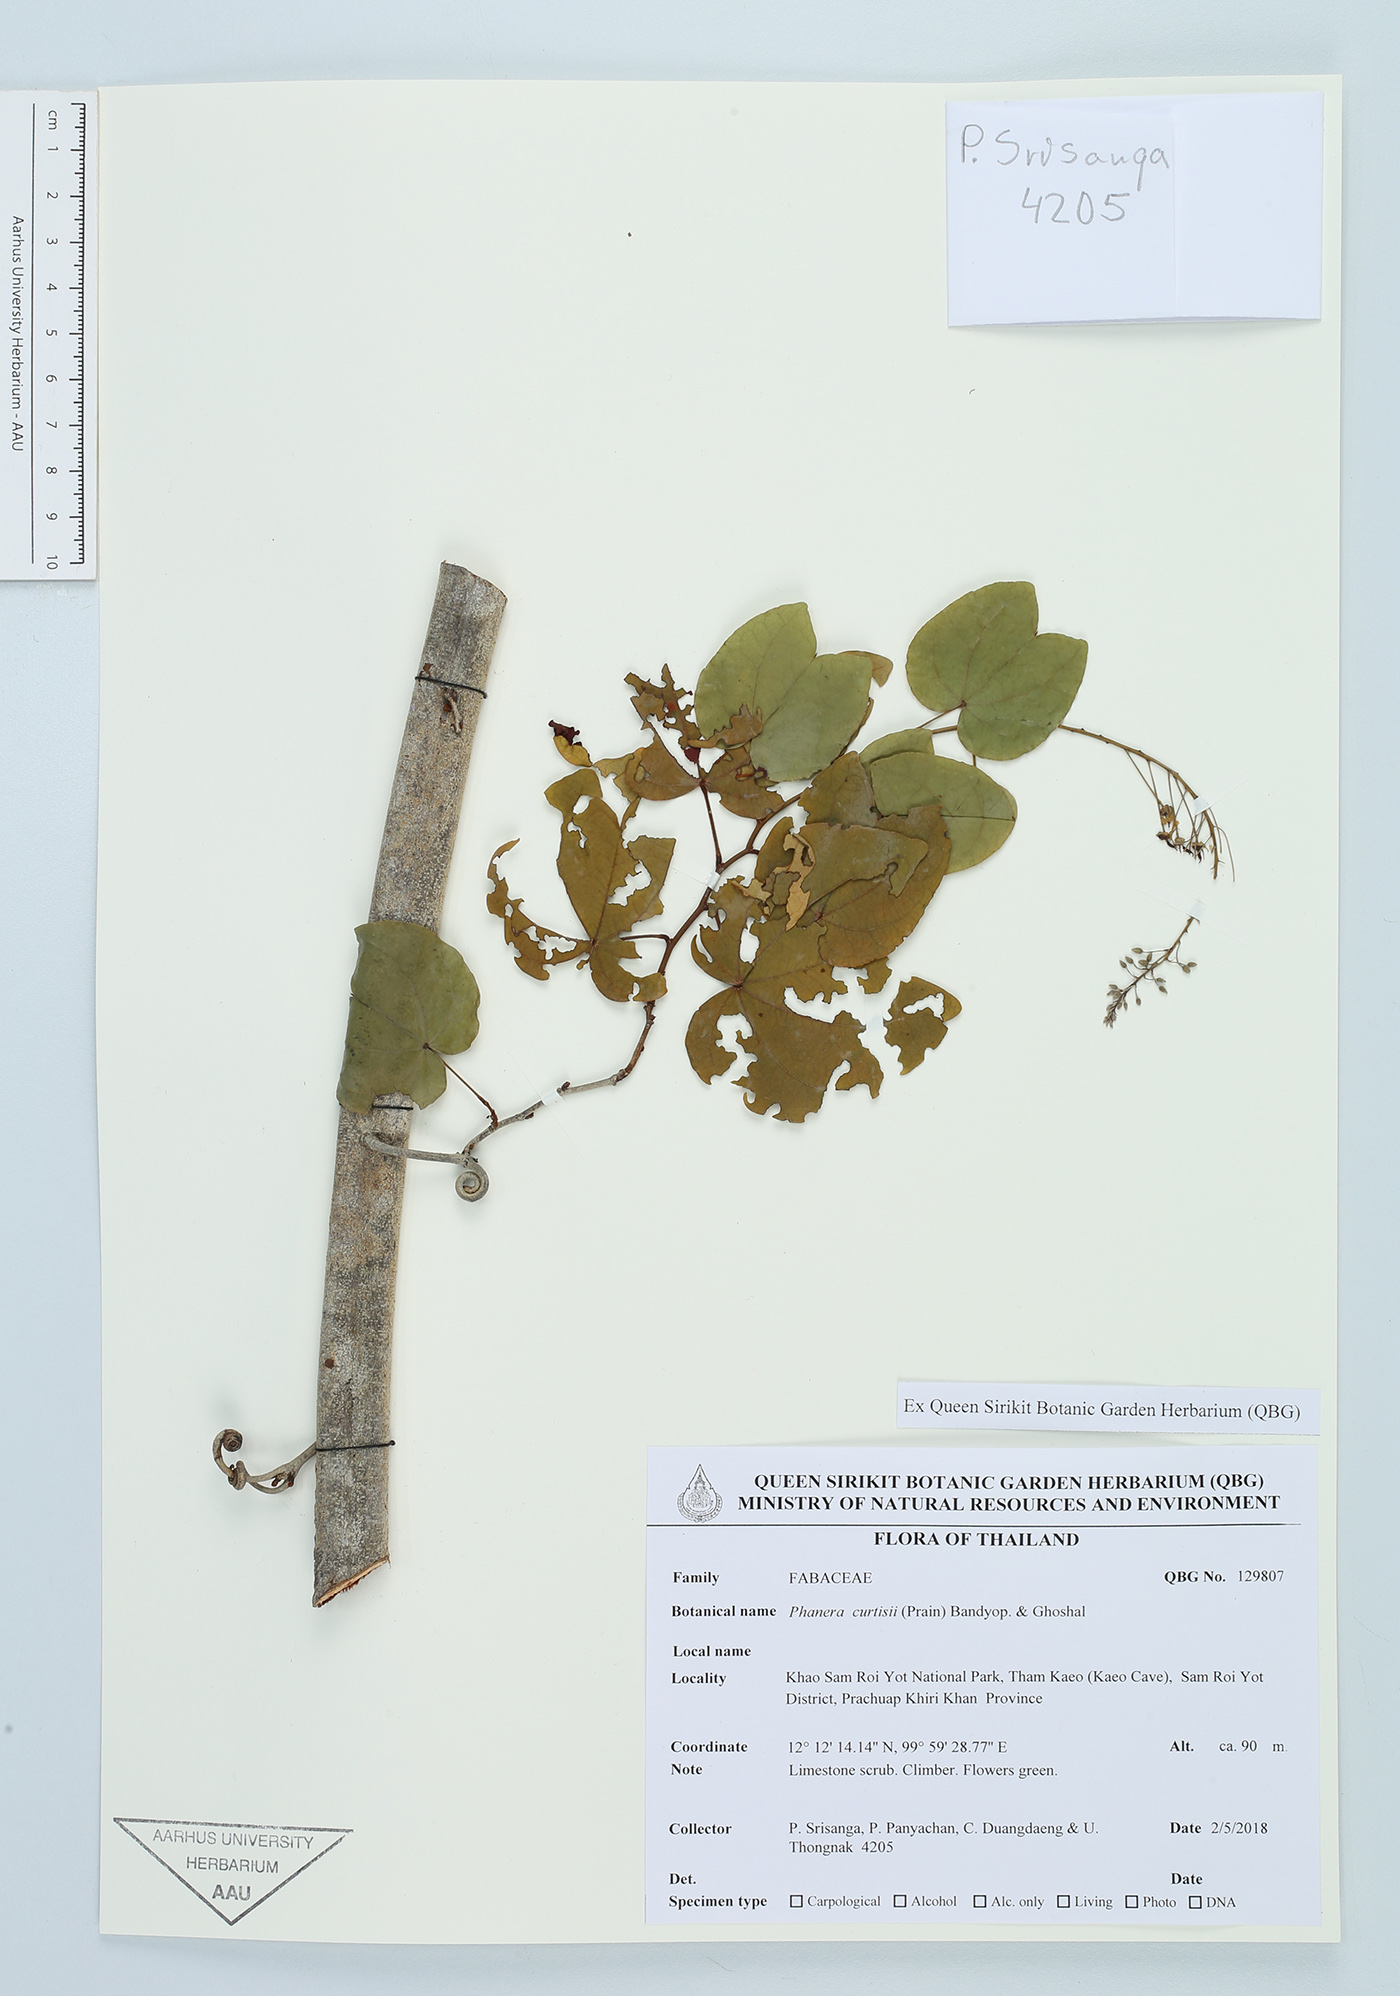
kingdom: Plantae
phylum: Tracheophyta
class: Magnoliopsida
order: Fabales
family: Fabaceae
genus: Phanera
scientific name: Phanera curtisii
